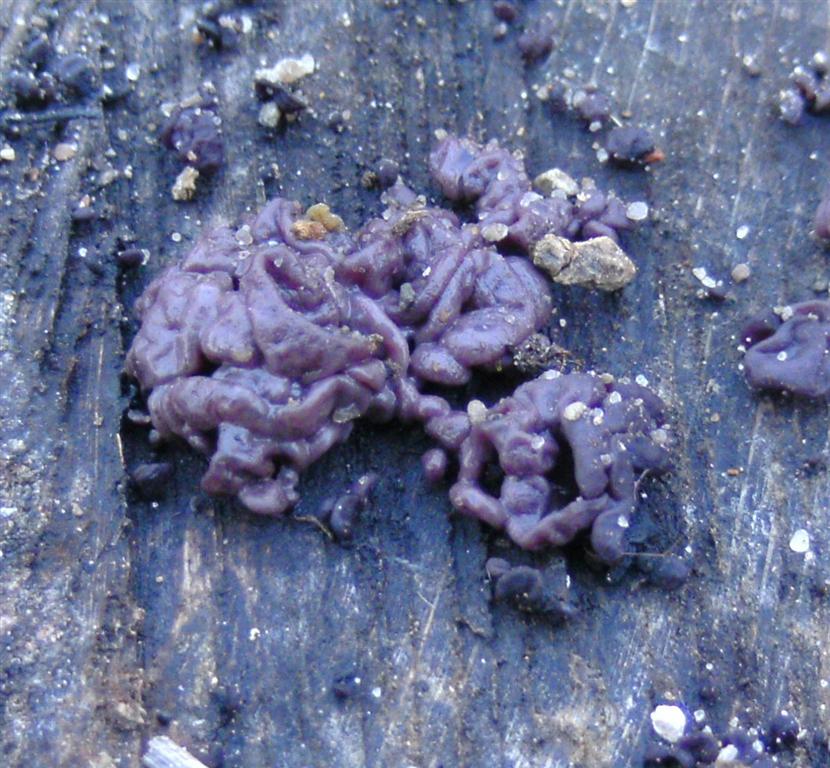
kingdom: Fungi
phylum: Ascomycota
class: Leotiomycetes
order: Helotiales
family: Gelatinodiscaceae
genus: Ascocoryne
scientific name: Ascocoryne sarcoides
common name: rødlilla sejskive
